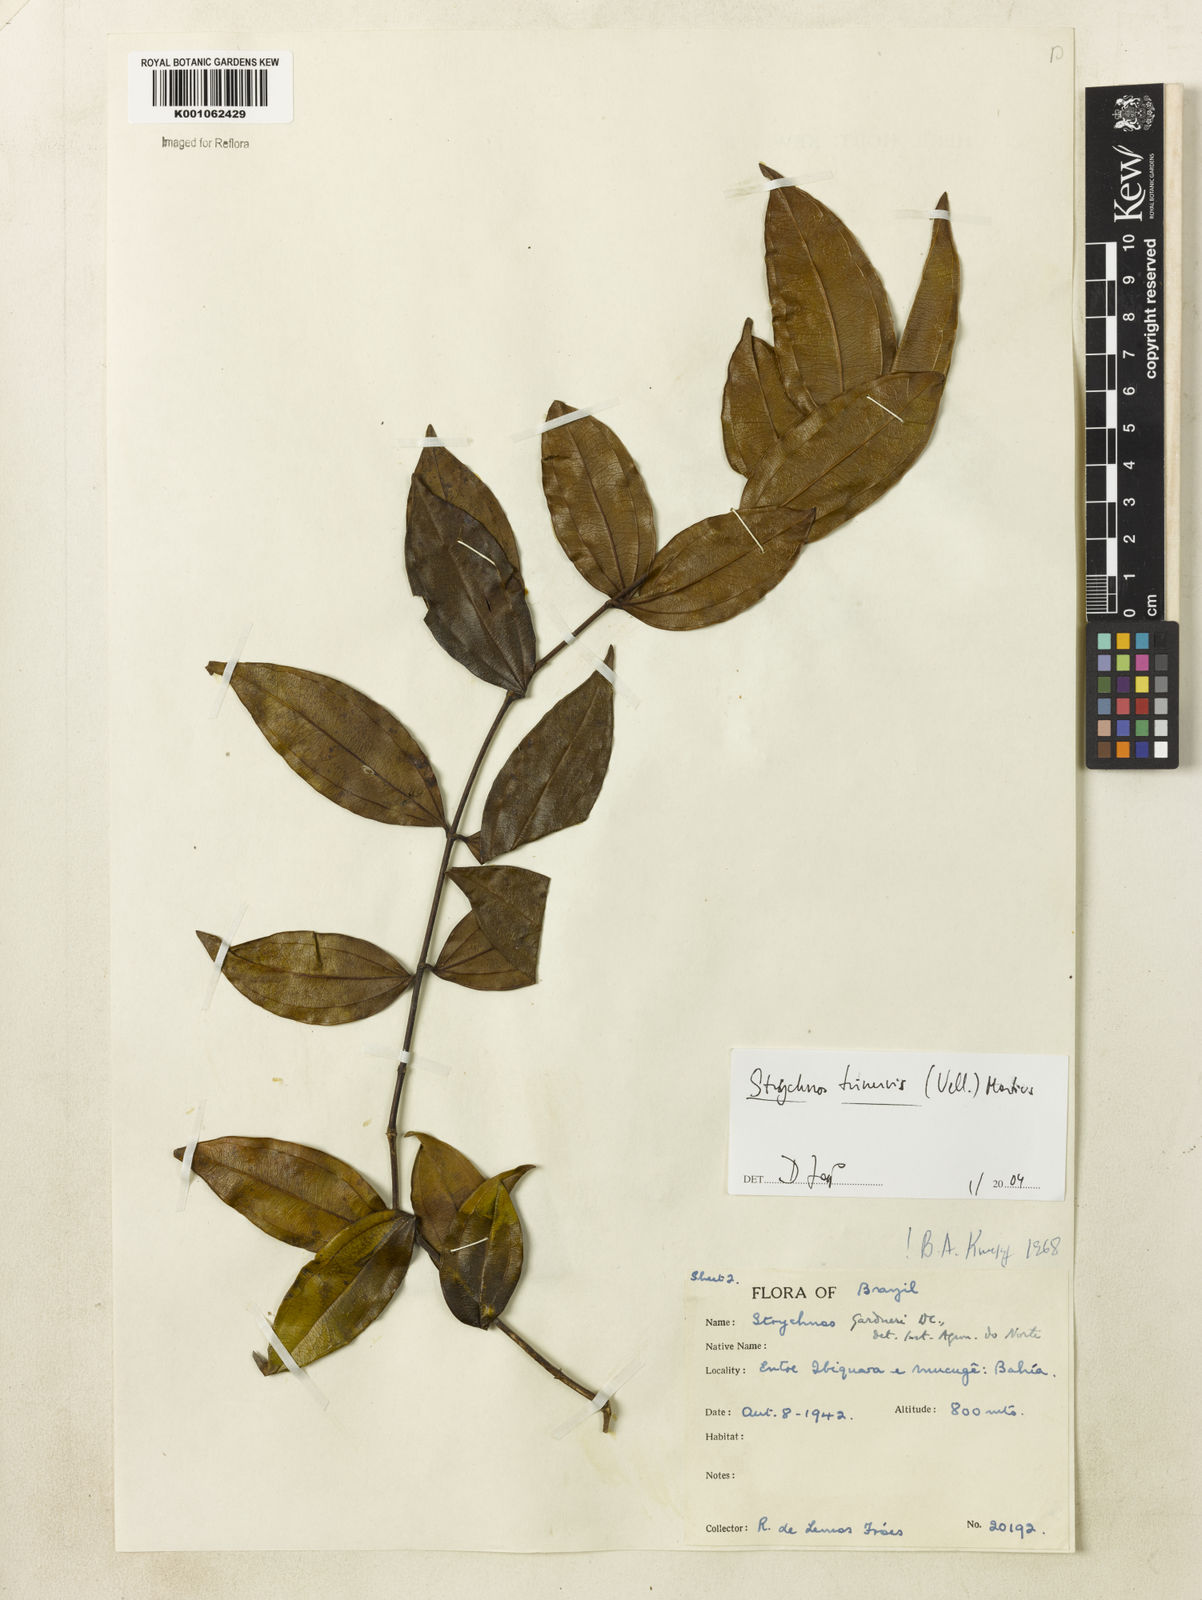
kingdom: Plantae
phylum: Tracheophyta
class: Magnoliopsida
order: Gentianales
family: Loganiaceae
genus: Strychnos
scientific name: Strychnos
